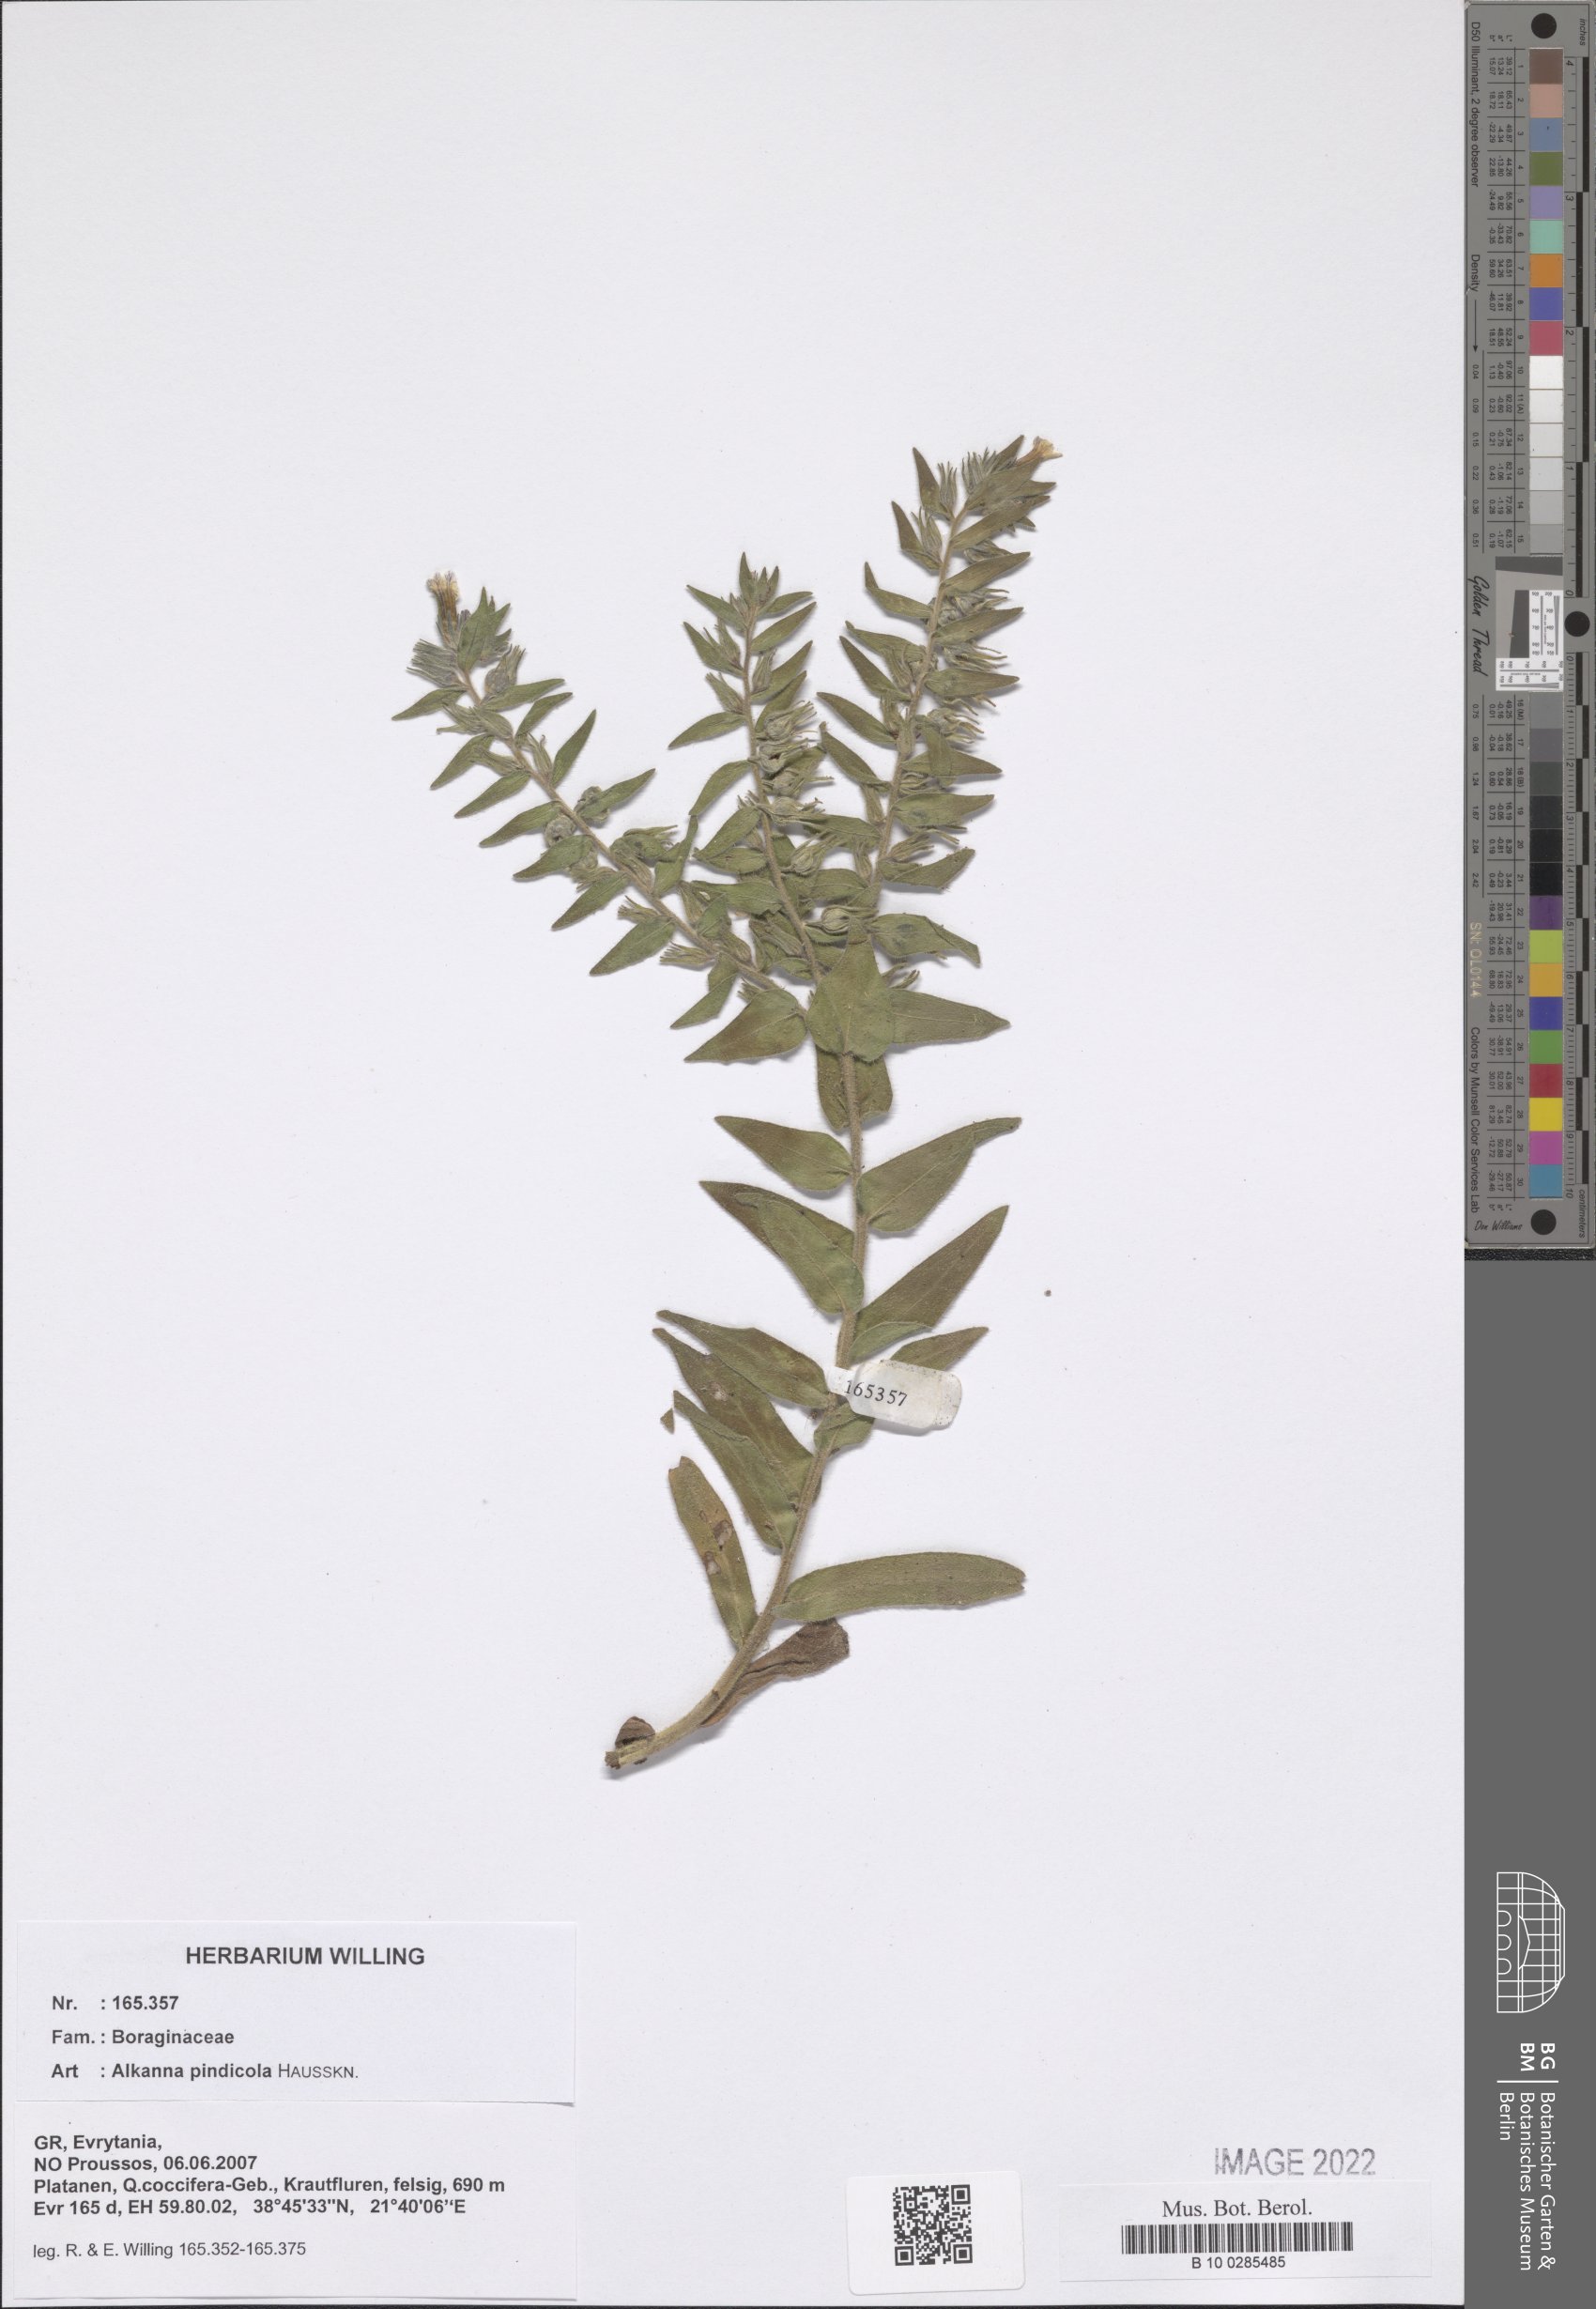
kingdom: Plantae
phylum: Tracheophyta
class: Magnoliopsida
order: Boraginales
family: Boraginaceae
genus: Alkanna
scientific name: Alkanna pindicola
